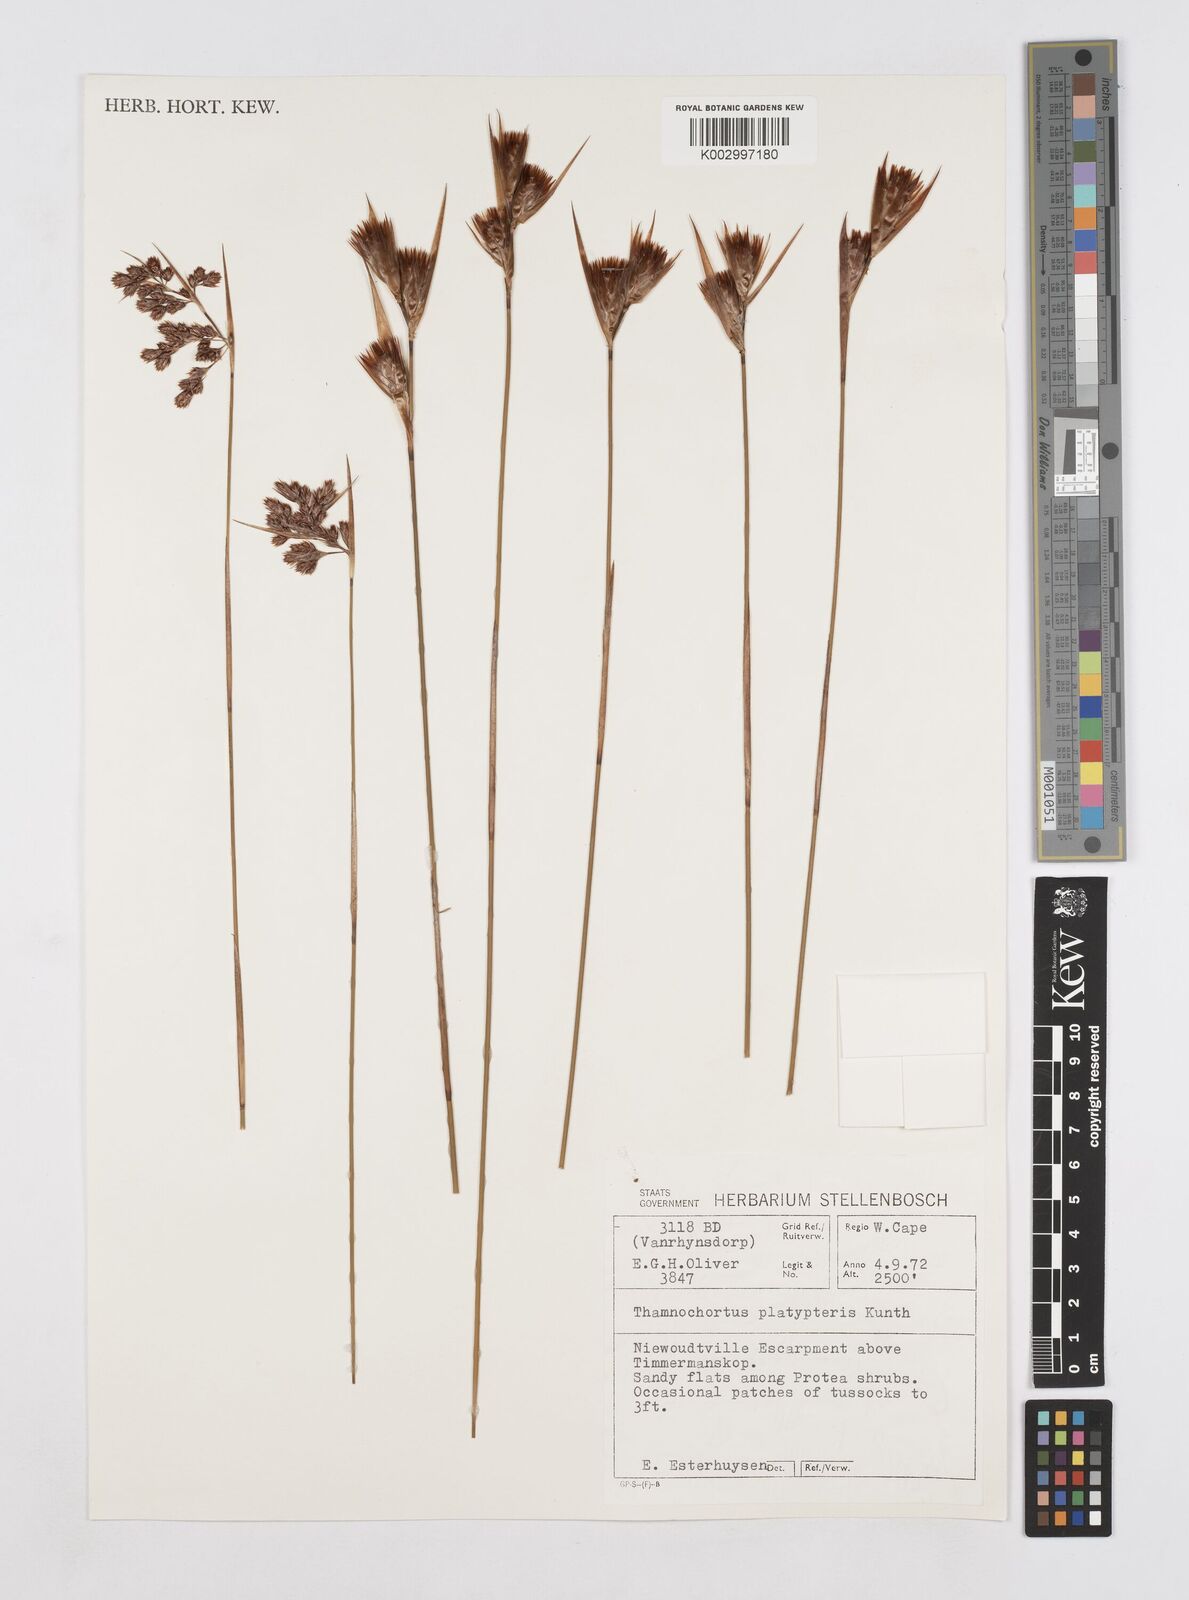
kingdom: Plantae
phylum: Tracheophyta
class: Liliopsida
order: Poales
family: Restionaceae
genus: Thamnochortus
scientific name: Thamnochortus platypteris
